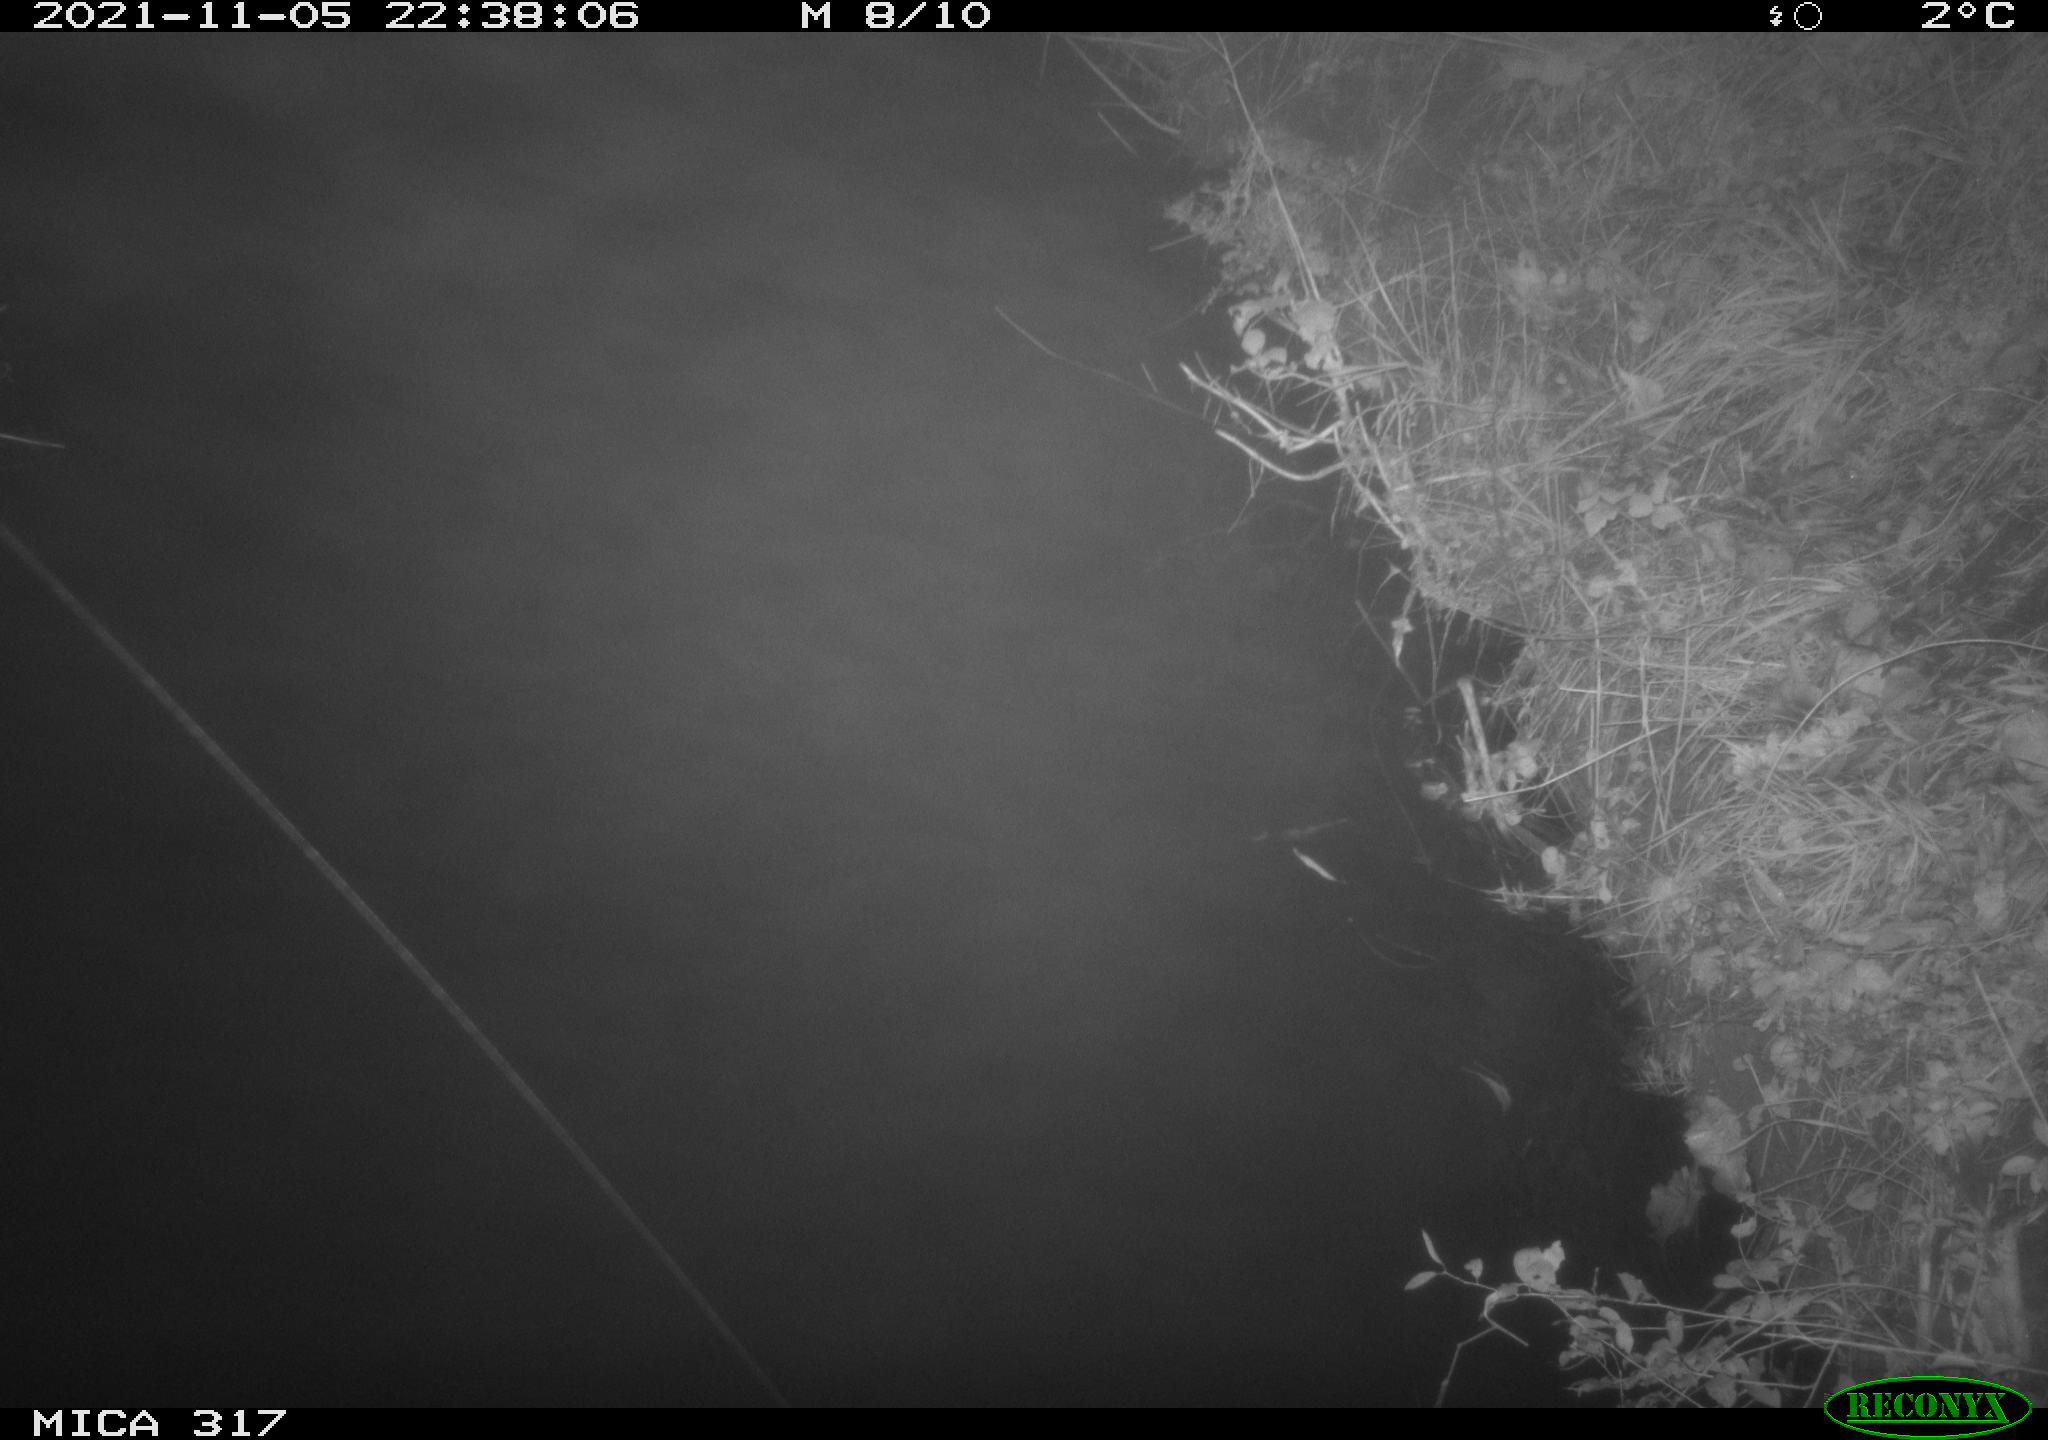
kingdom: Animalia
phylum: Chordata
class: Mammalia
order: Carnivora
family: Canidae
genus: Vulpes
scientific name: Vulpes vulpes
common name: Red fox
